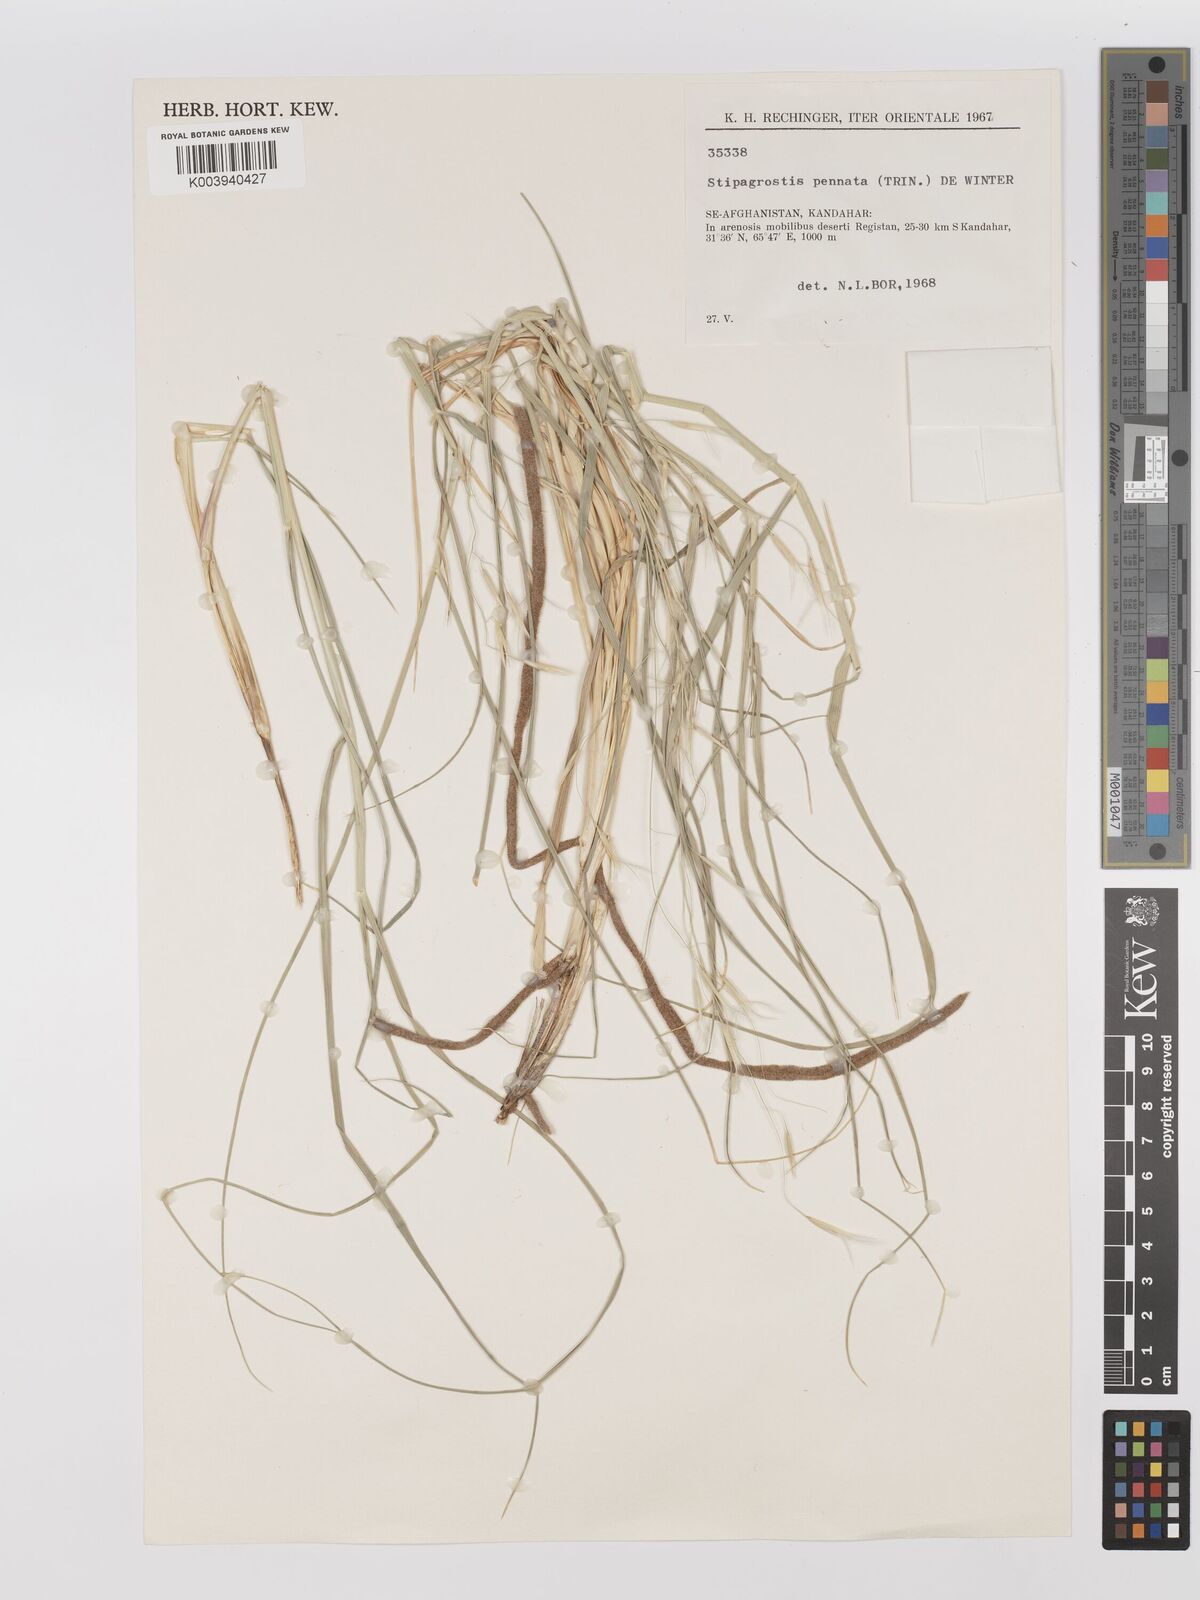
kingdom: Plantae
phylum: Tracheophyta
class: Liliopsida
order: Poales
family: Poaceae
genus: Stipagrostis
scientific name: Stipagrostis pennata
